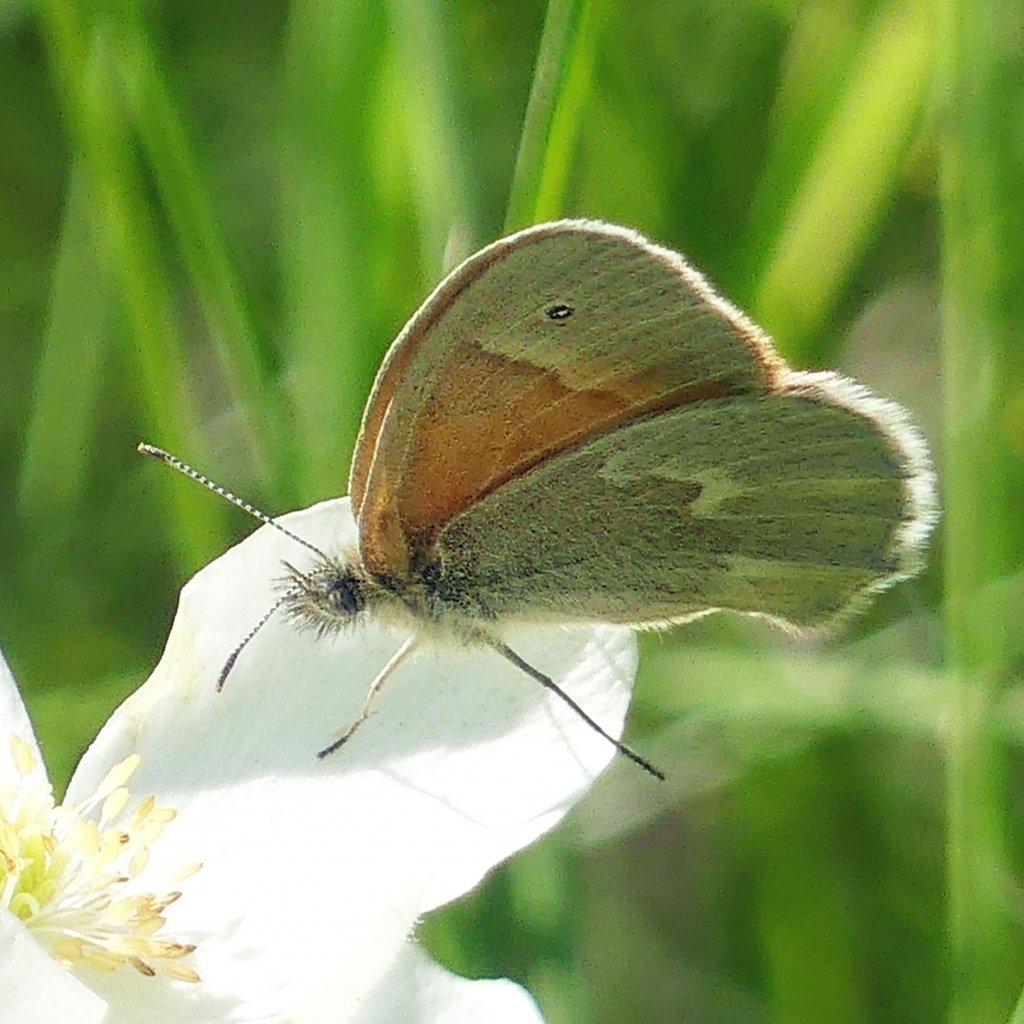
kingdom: Animalia
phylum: Arthropoda
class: Insecta
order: Lepidoptera
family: Nymphalidae
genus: Coenonympha
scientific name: Coenonympha tullia
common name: Large Heath
